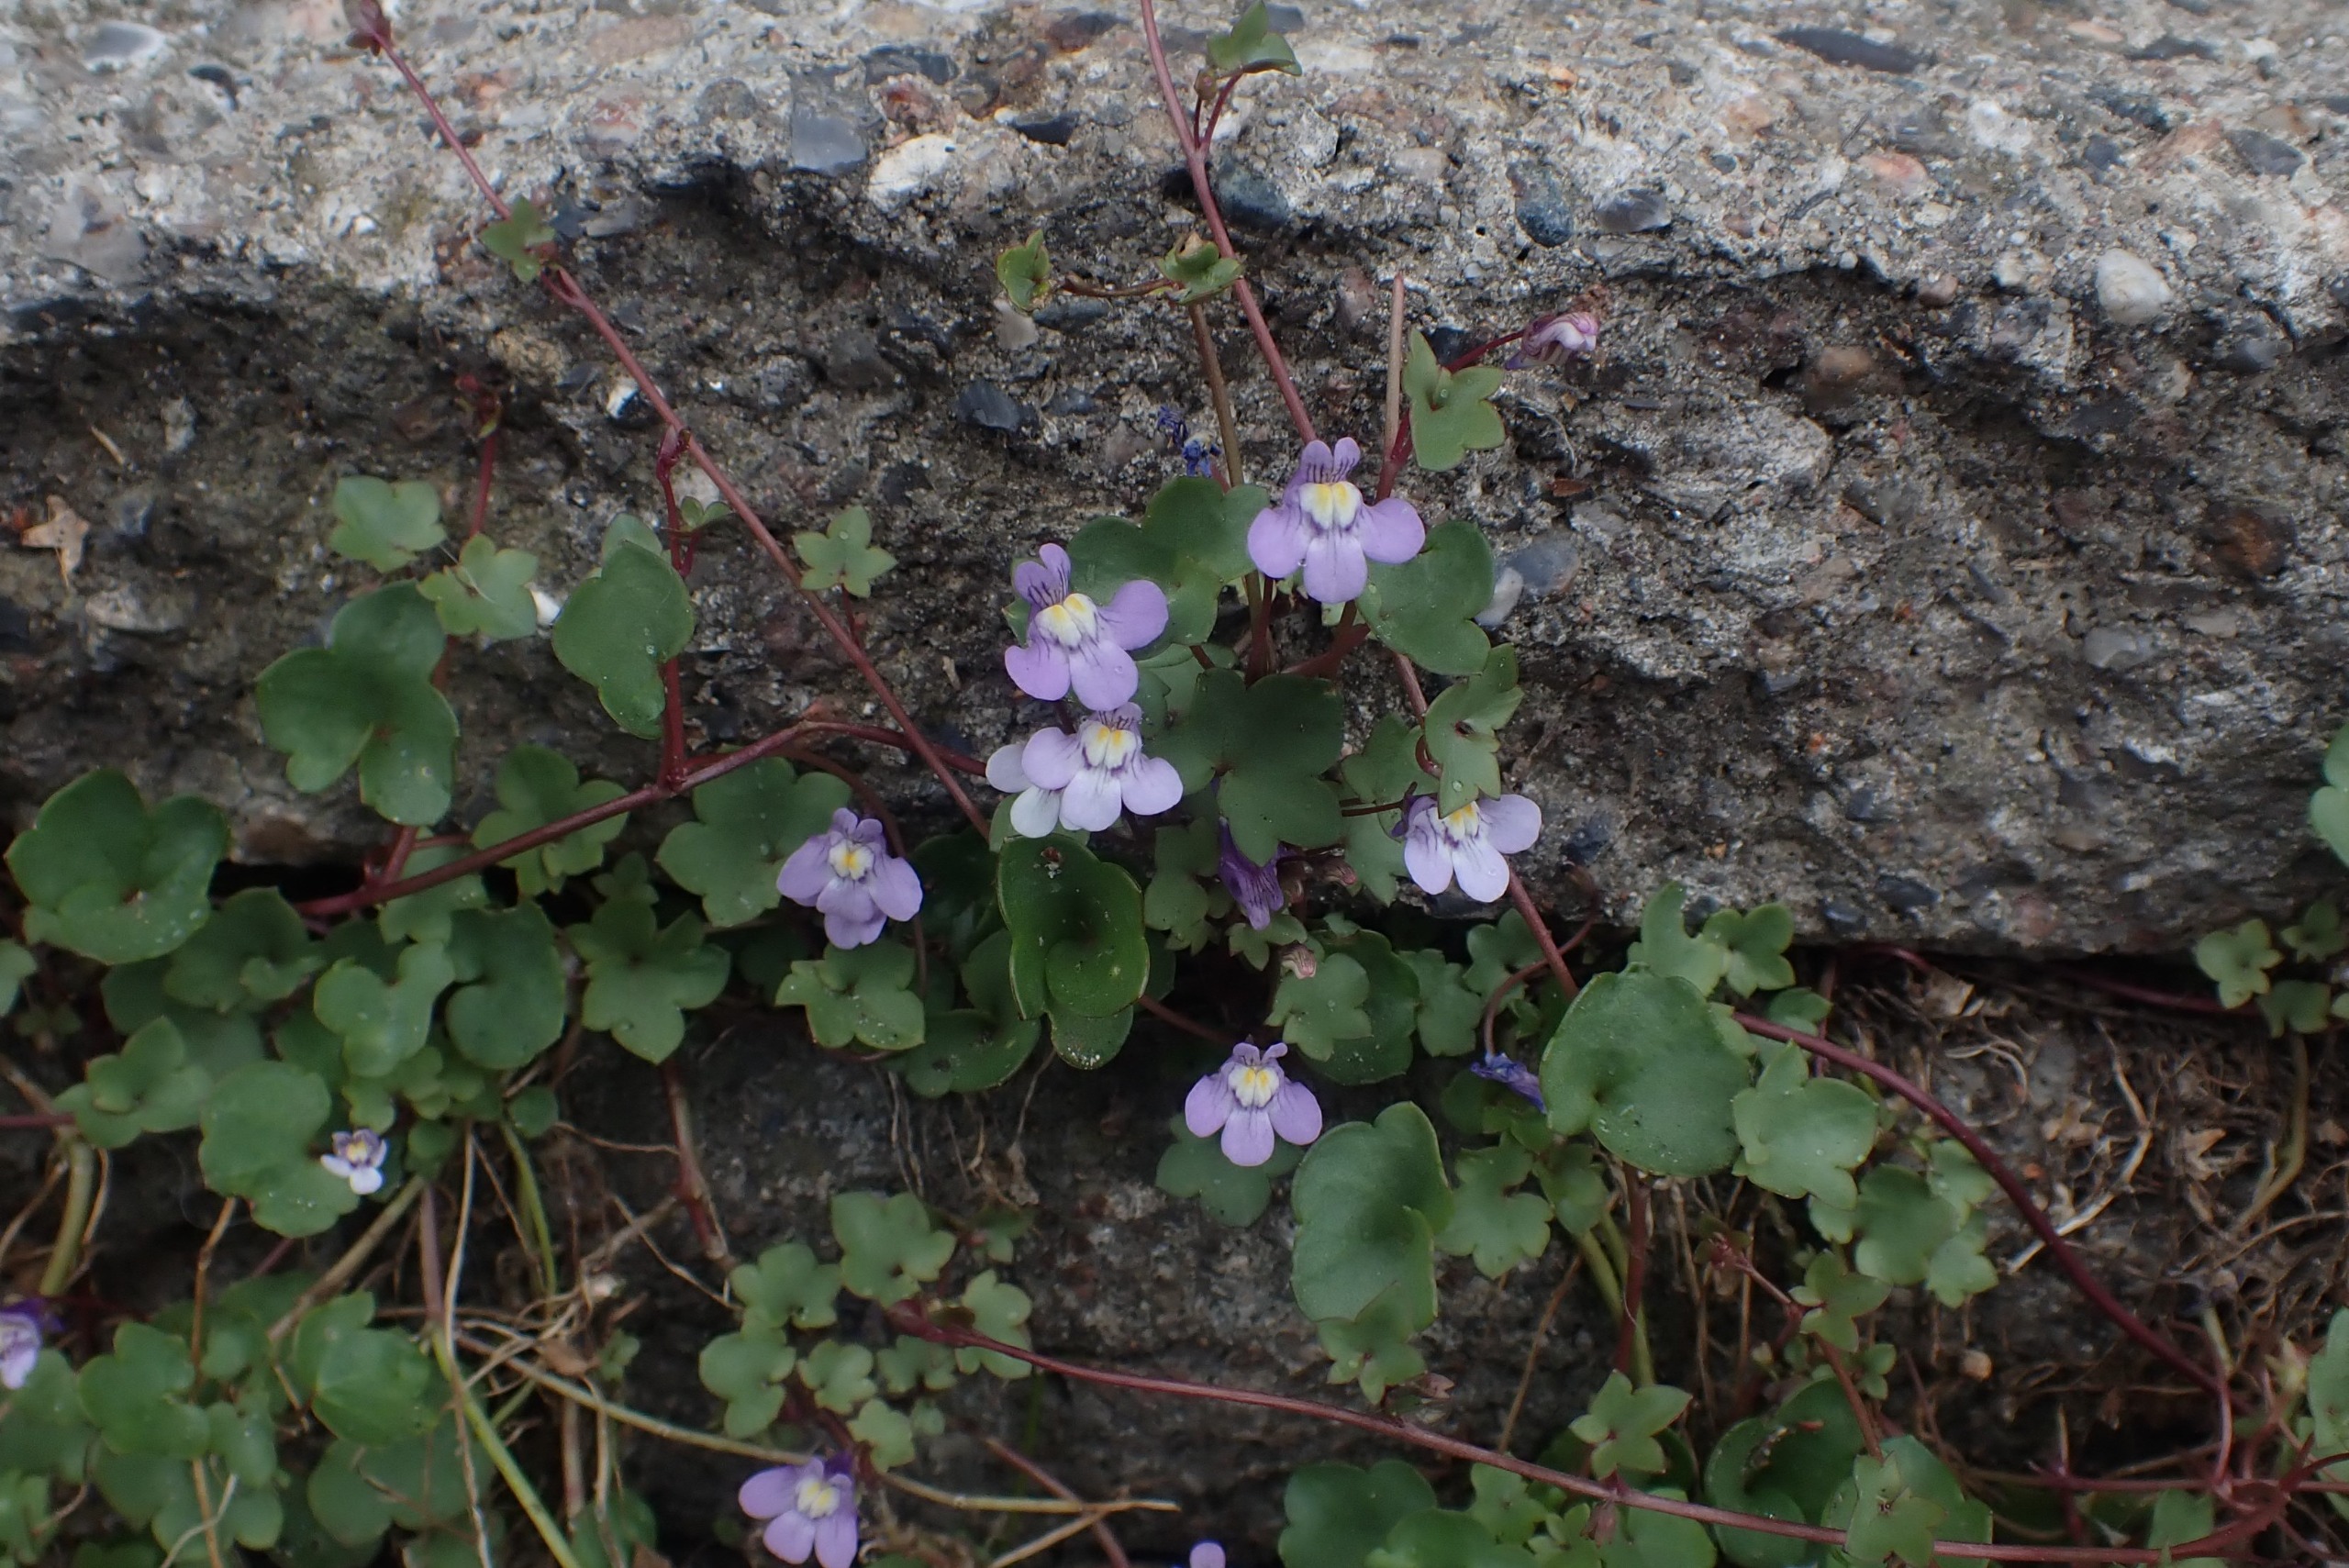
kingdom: Plantae
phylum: Tracheophyta
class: Magnoliopsida
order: Lamiales
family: Plantaginaceae
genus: Cymbalaria
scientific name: Cymbalaria muralis
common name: Vedbend-torskemund
